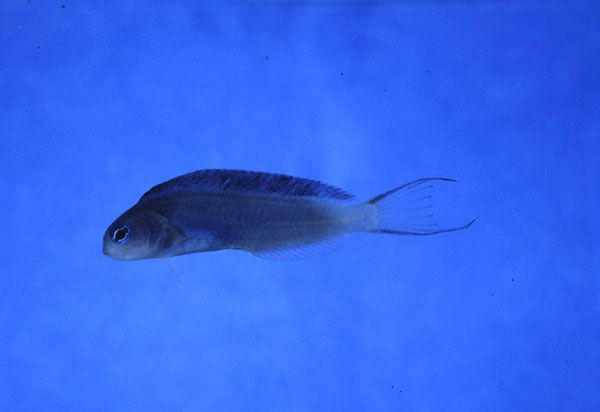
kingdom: Animalia
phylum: Chordata
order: Perciformes
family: Blenniidae
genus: Meiacanthus
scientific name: Meiacanthus fraseri
